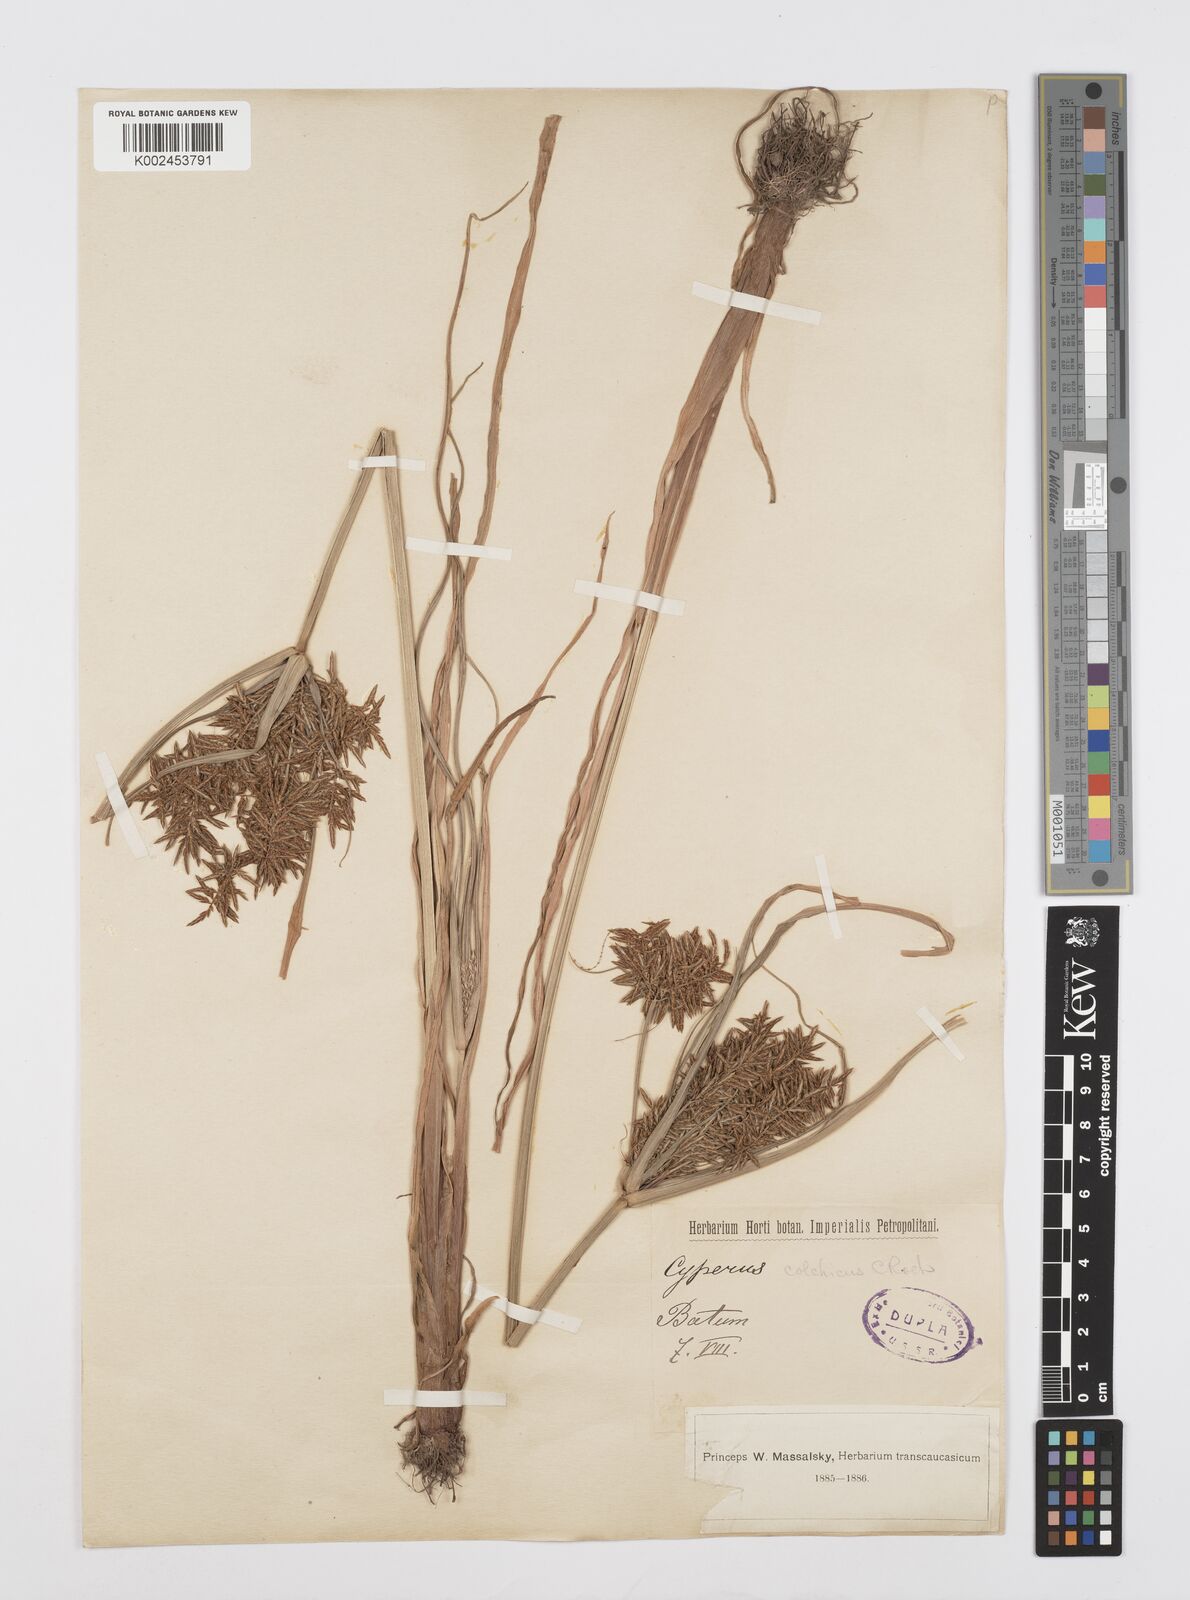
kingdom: Plantae
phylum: Tracheophyta
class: Liliopsida
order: Poales
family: Cyperaceae
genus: Cyperus
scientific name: Cyperus macrostachyos
